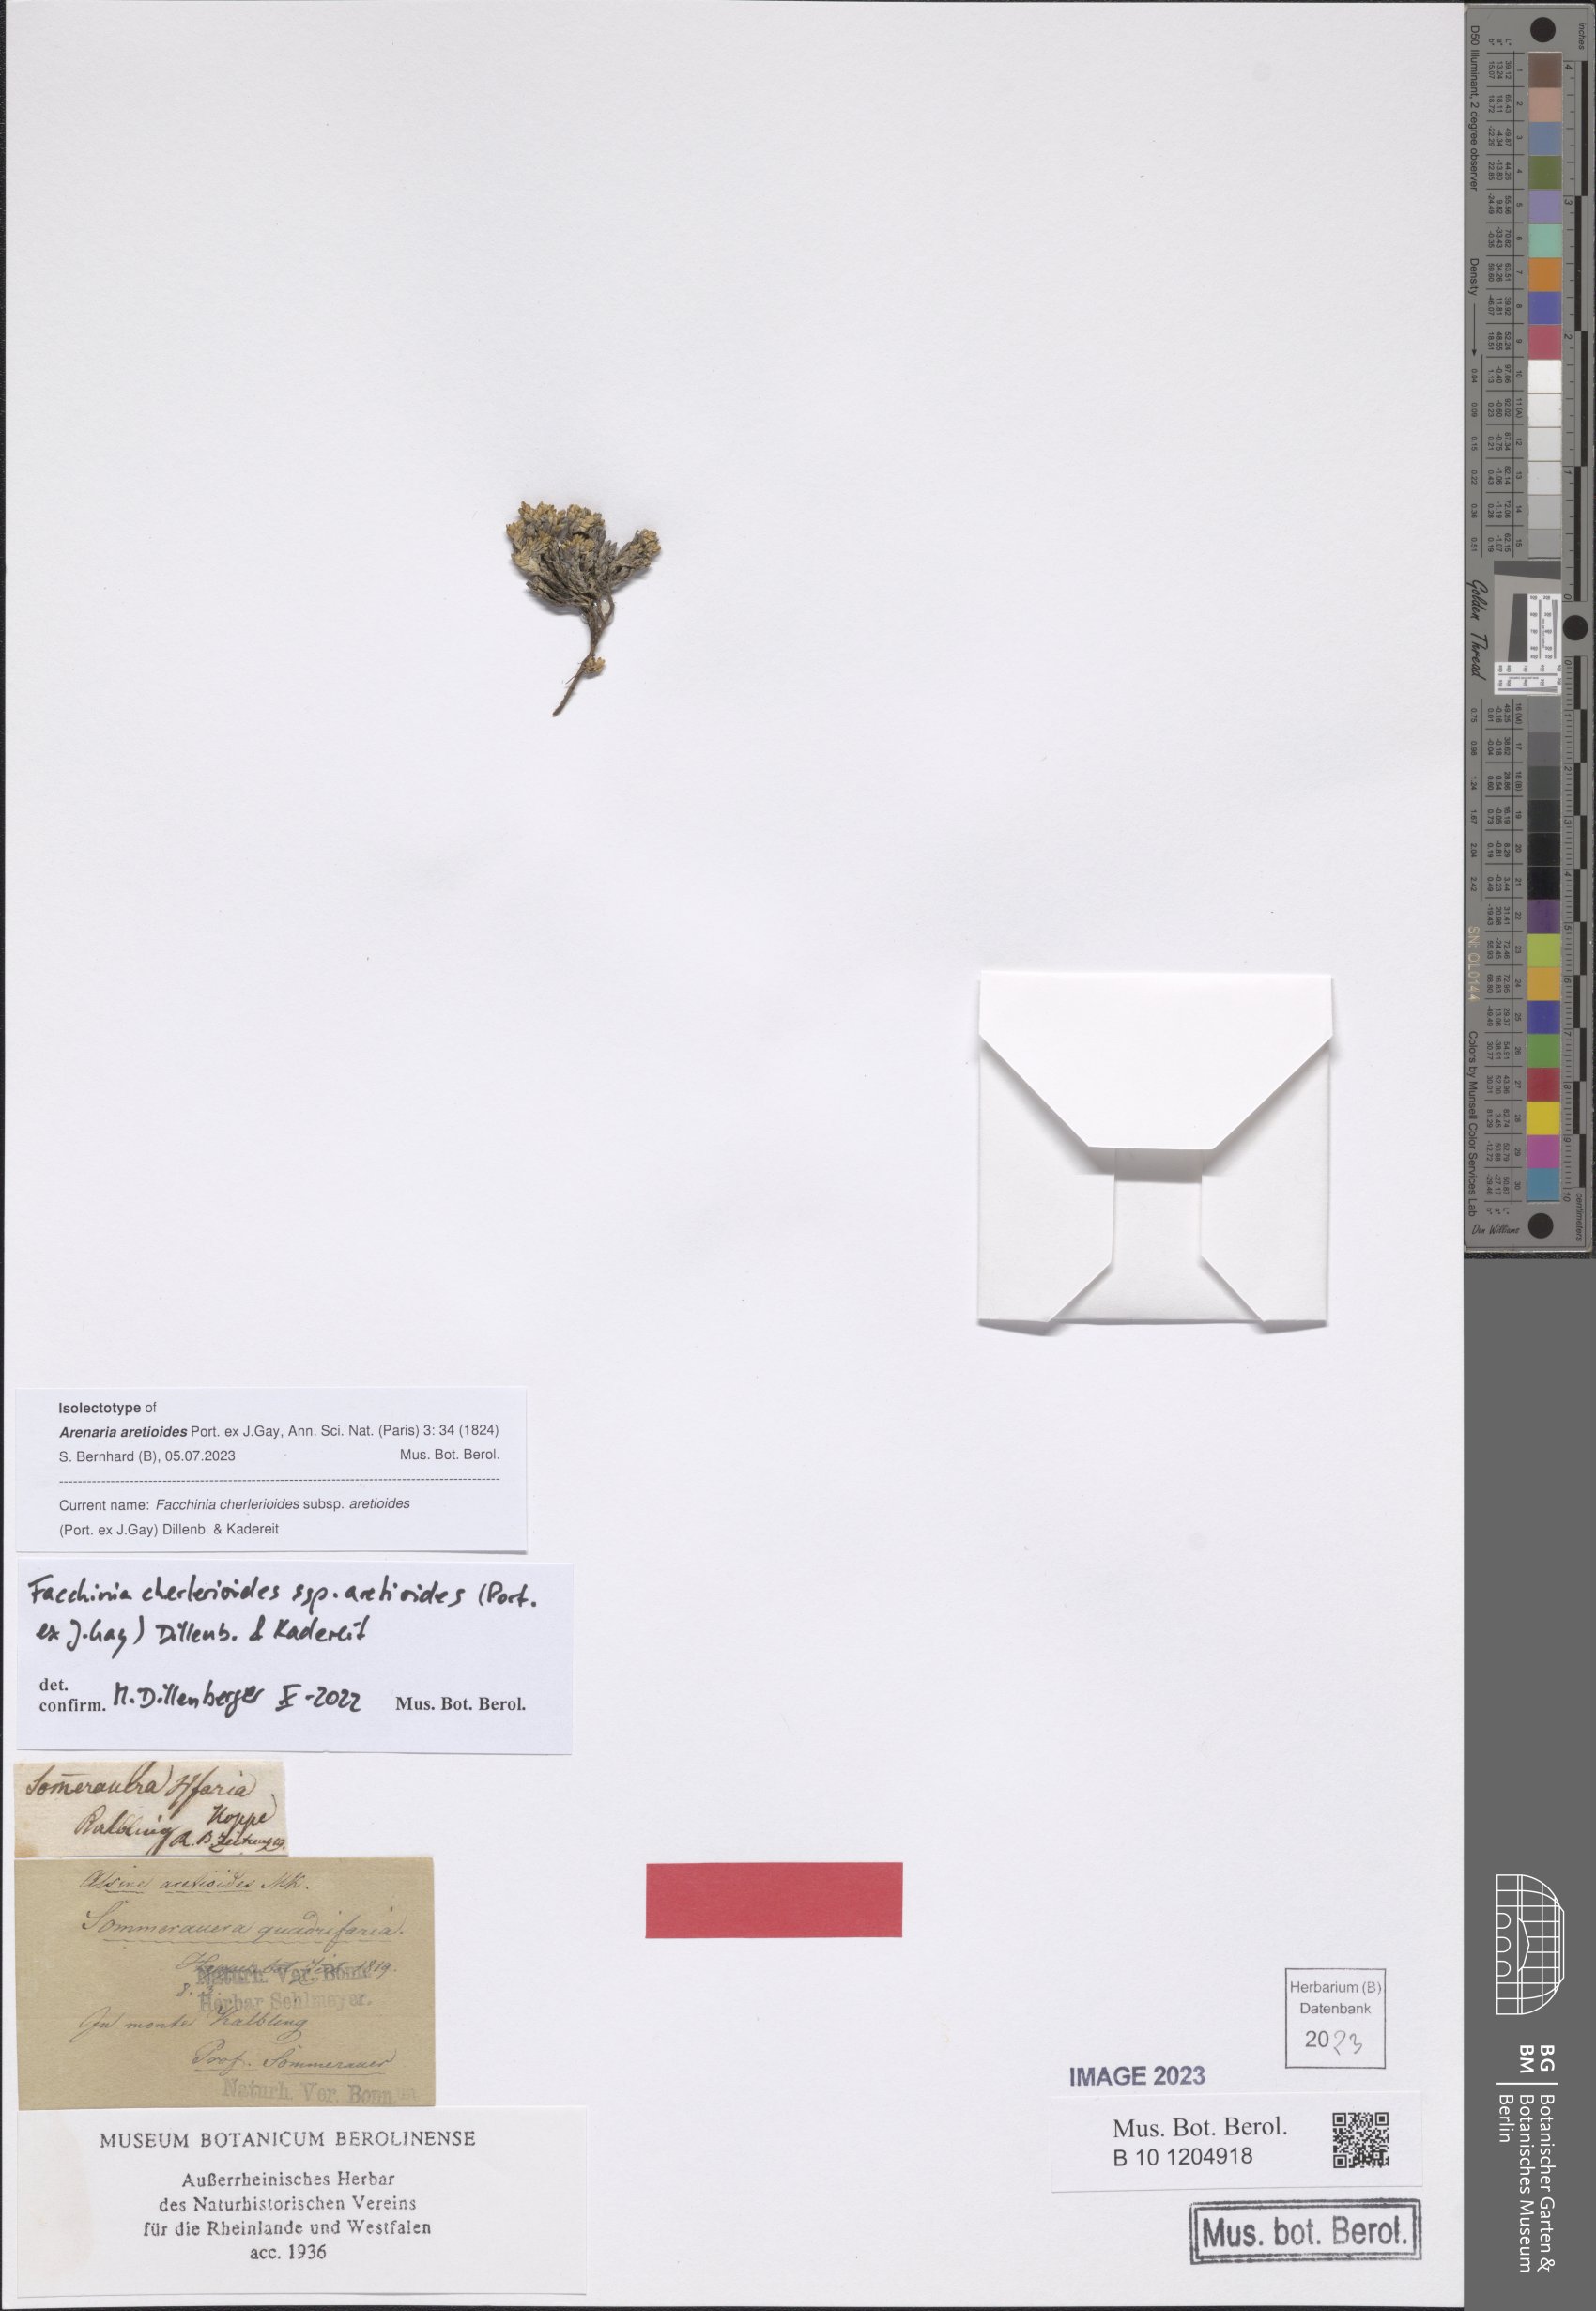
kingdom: Plantae
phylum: Tracheophyta
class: Magnoliopsida
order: Caryophyllales
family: Caryophyllaceae
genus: Facchinia
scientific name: Facchinia cherlerioides
